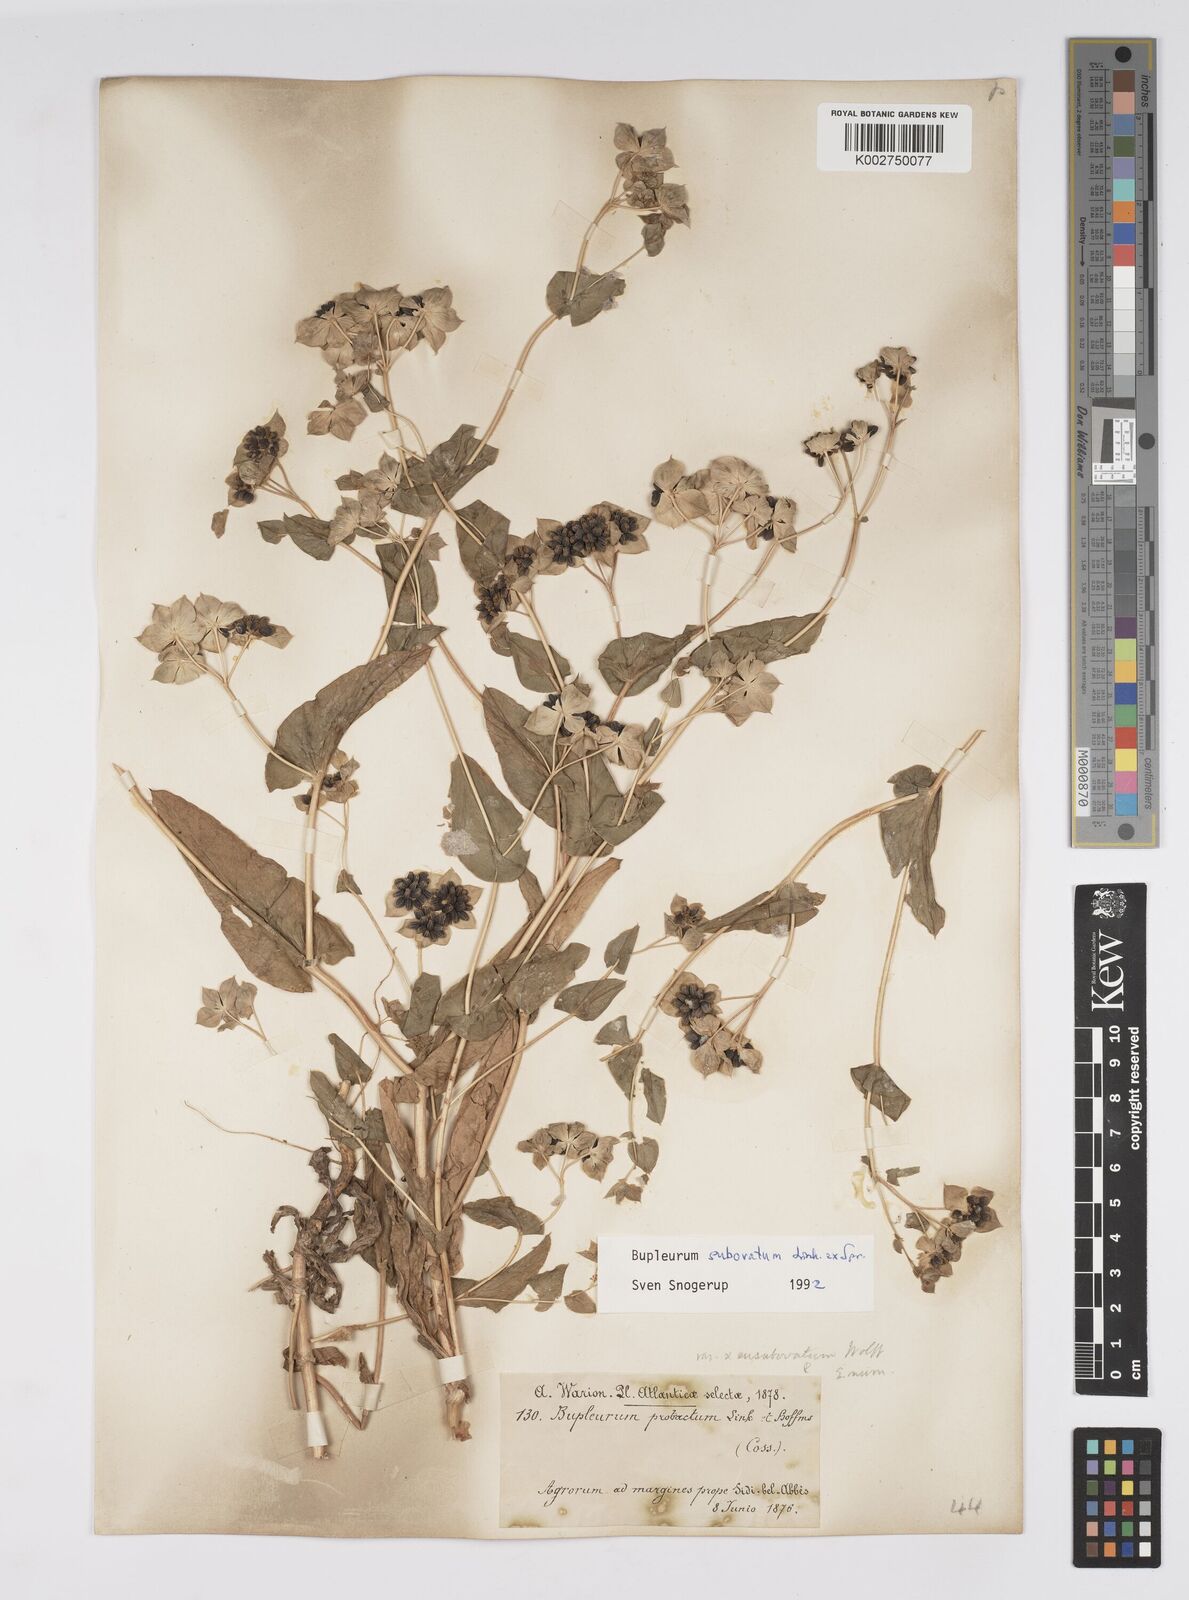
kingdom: Plantae
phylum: Tracheophyta
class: Magnoliopsida
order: Apiales
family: Apiaceae
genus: Bupleurum
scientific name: Bupleurum subovatum
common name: False thorow-wax
